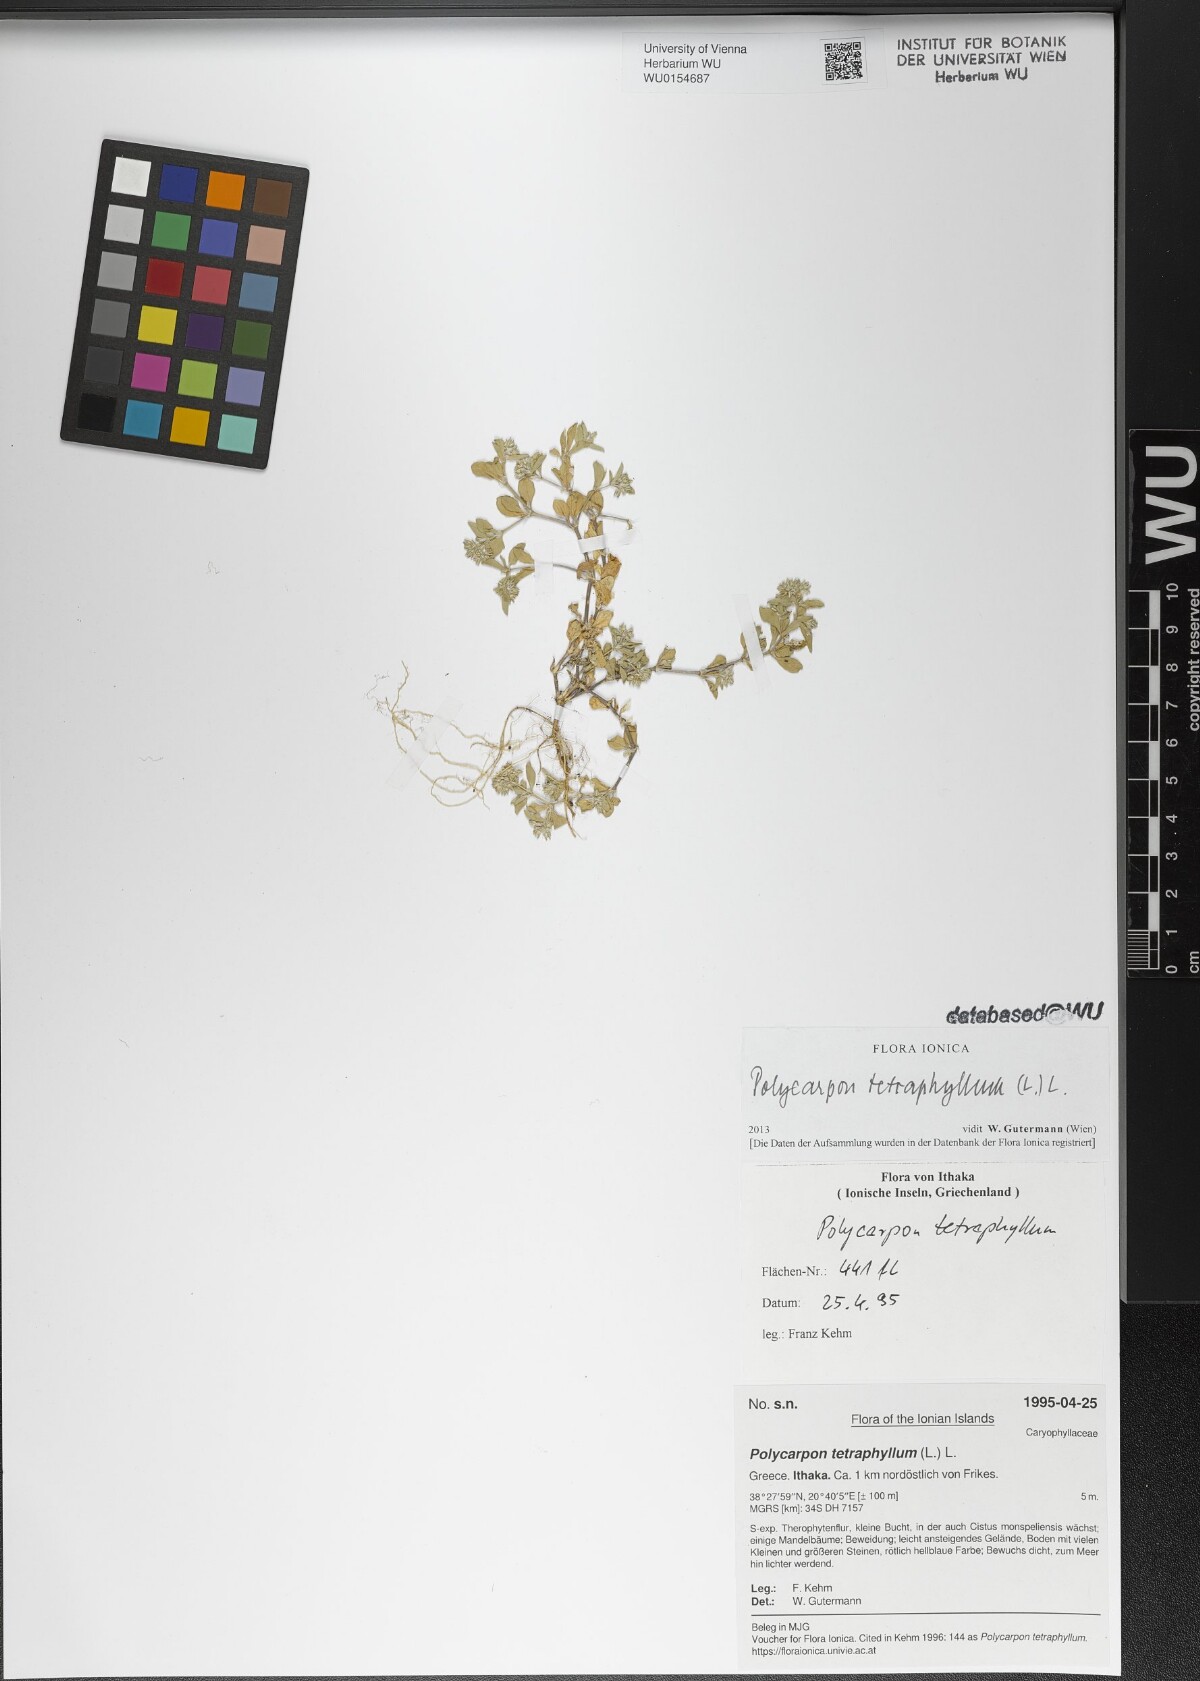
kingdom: Plantae
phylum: Tracheophyta
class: Magnoliopsida
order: Caryophyllales
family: Caryophyllaceae
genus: Polycarpon
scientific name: Polycarpon tetraphyllum
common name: Four-leaved all-seed
